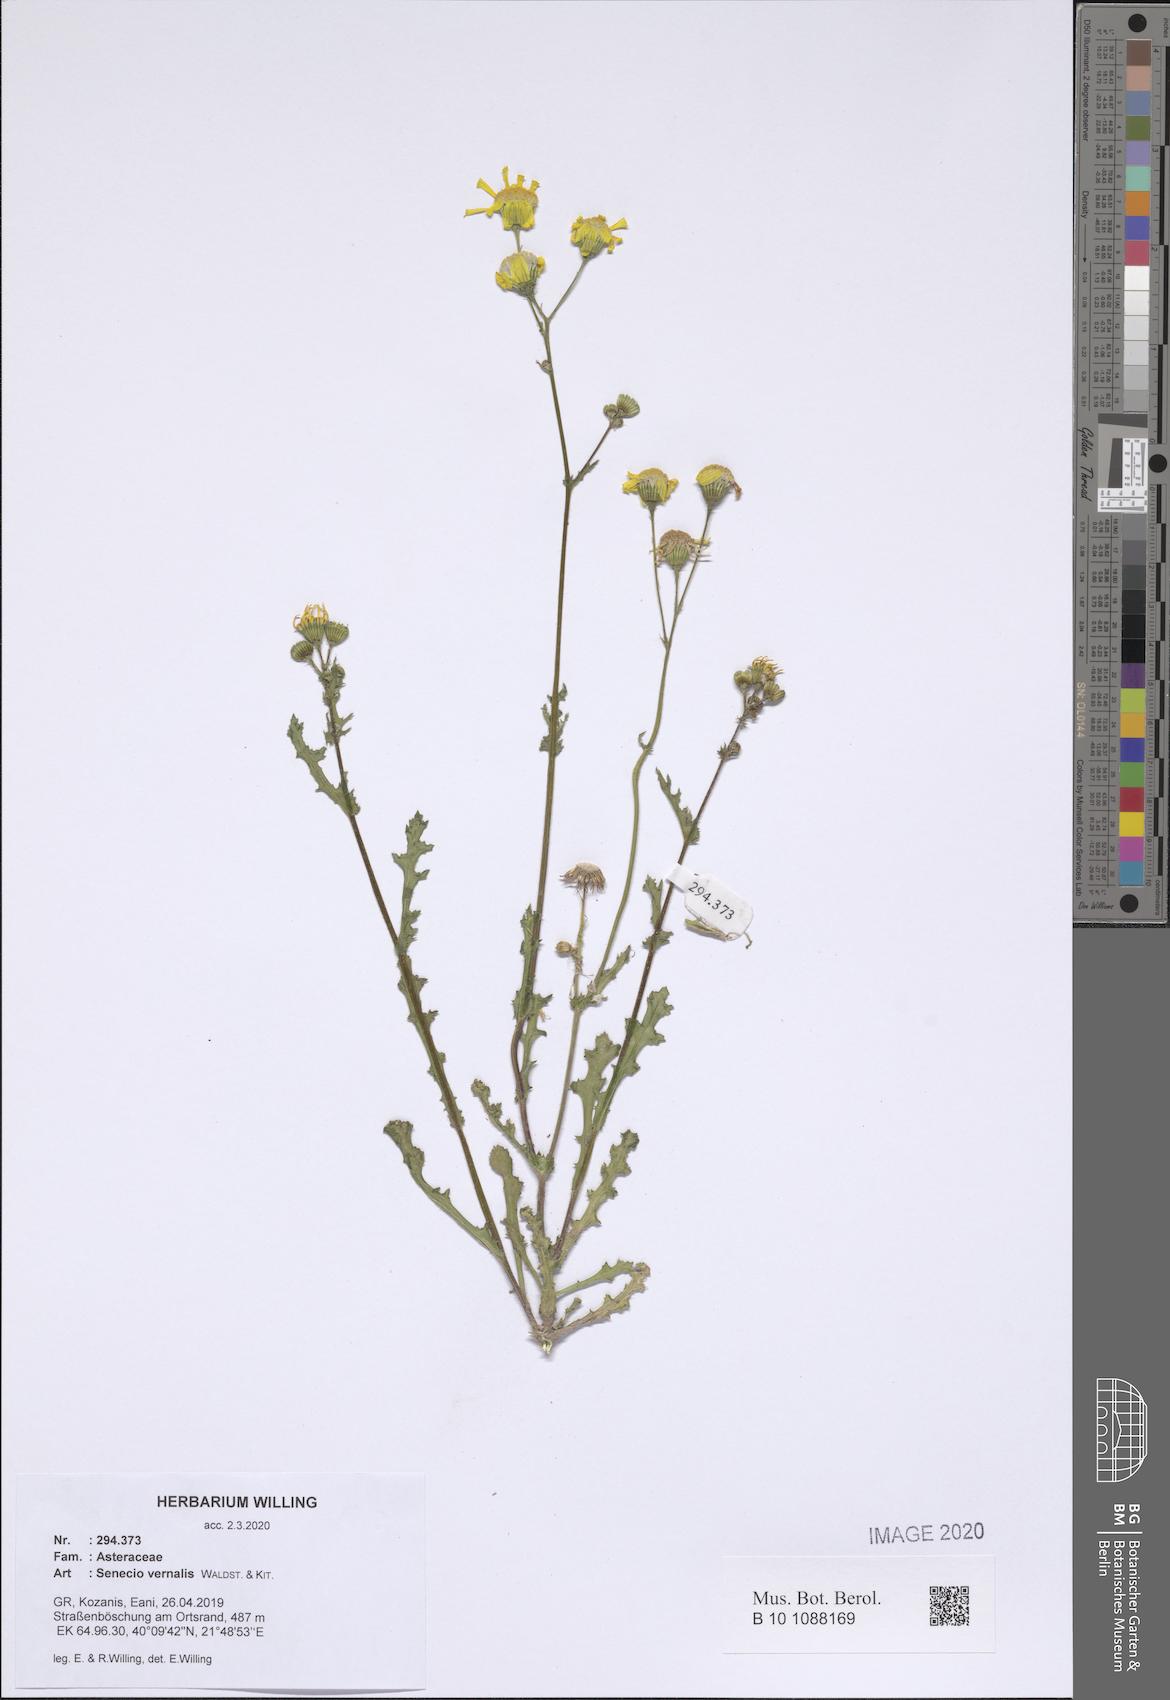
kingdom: Plantae
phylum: Tracheophyta
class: Magnoliopsida
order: Asterales
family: Asteraceae
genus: Senecio
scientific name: Senecio vernalis
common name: Eastern groundsel
